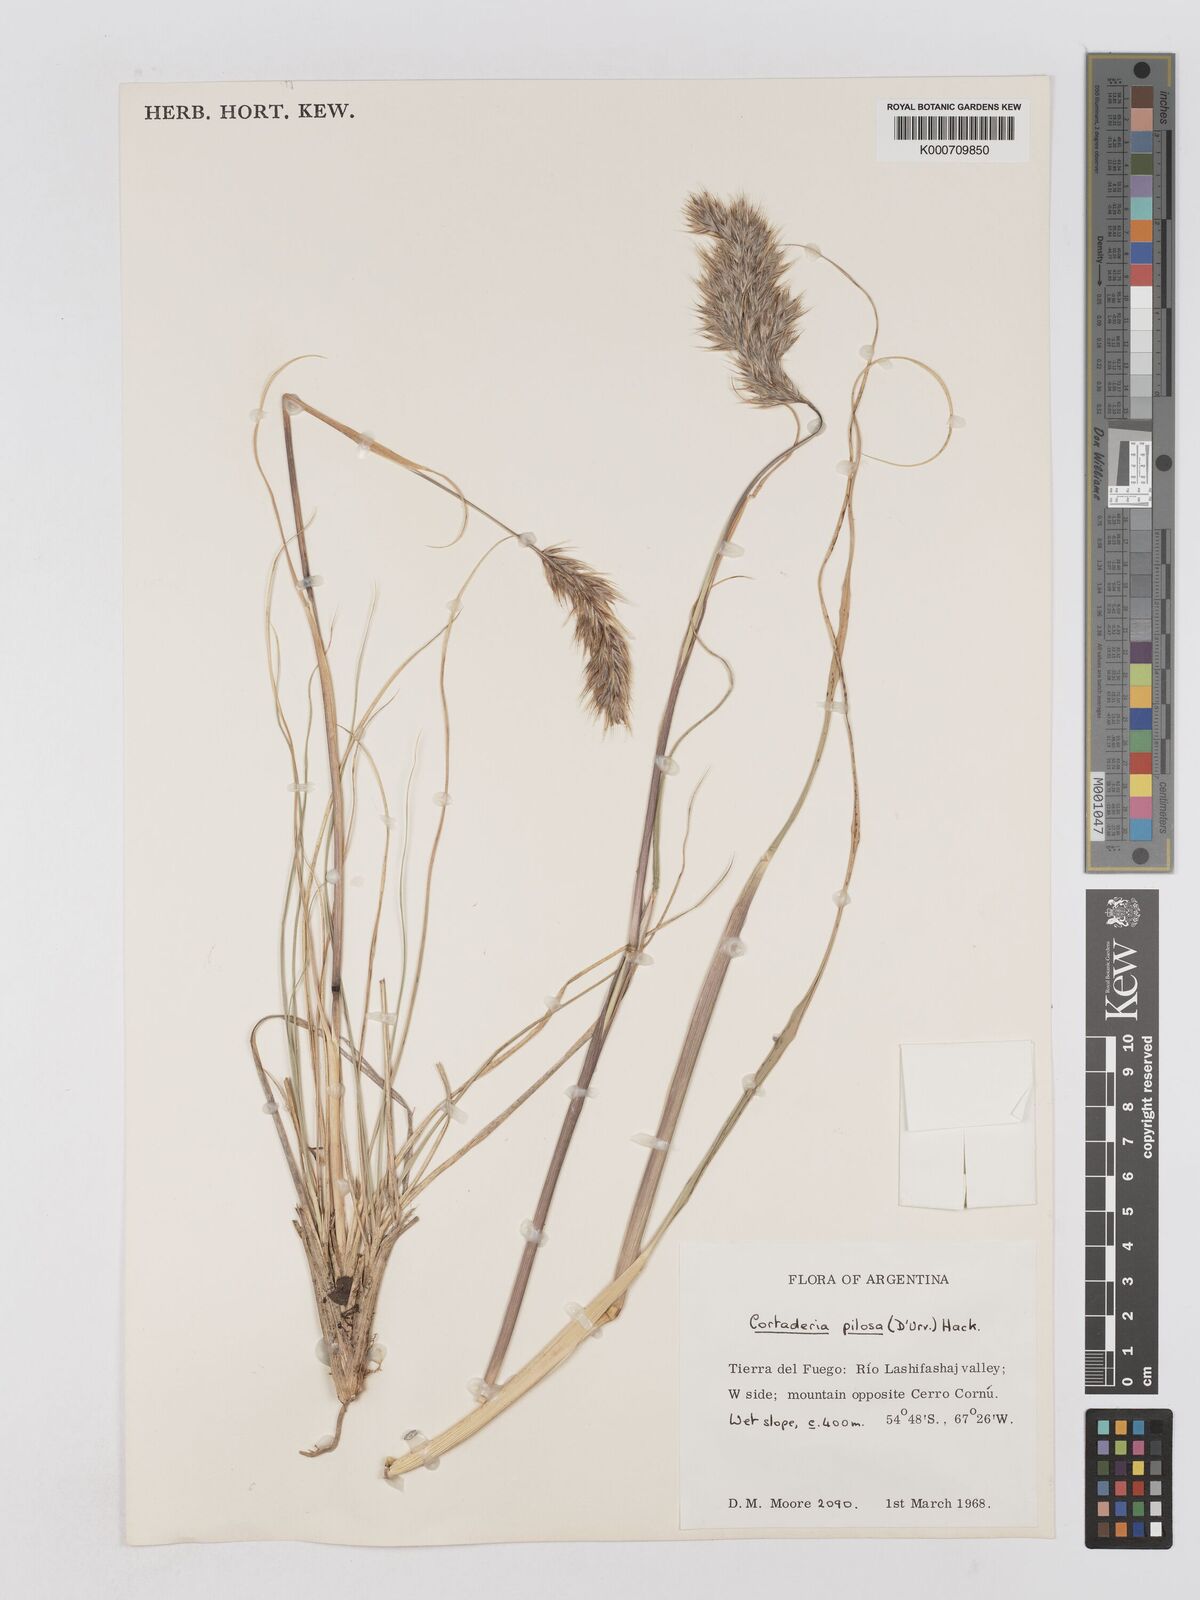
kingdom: Plantae
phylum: Tracheophyta
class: Liliopsida
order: Poales
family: Poaceae
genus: Cortaderia
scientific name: Cortaderia
